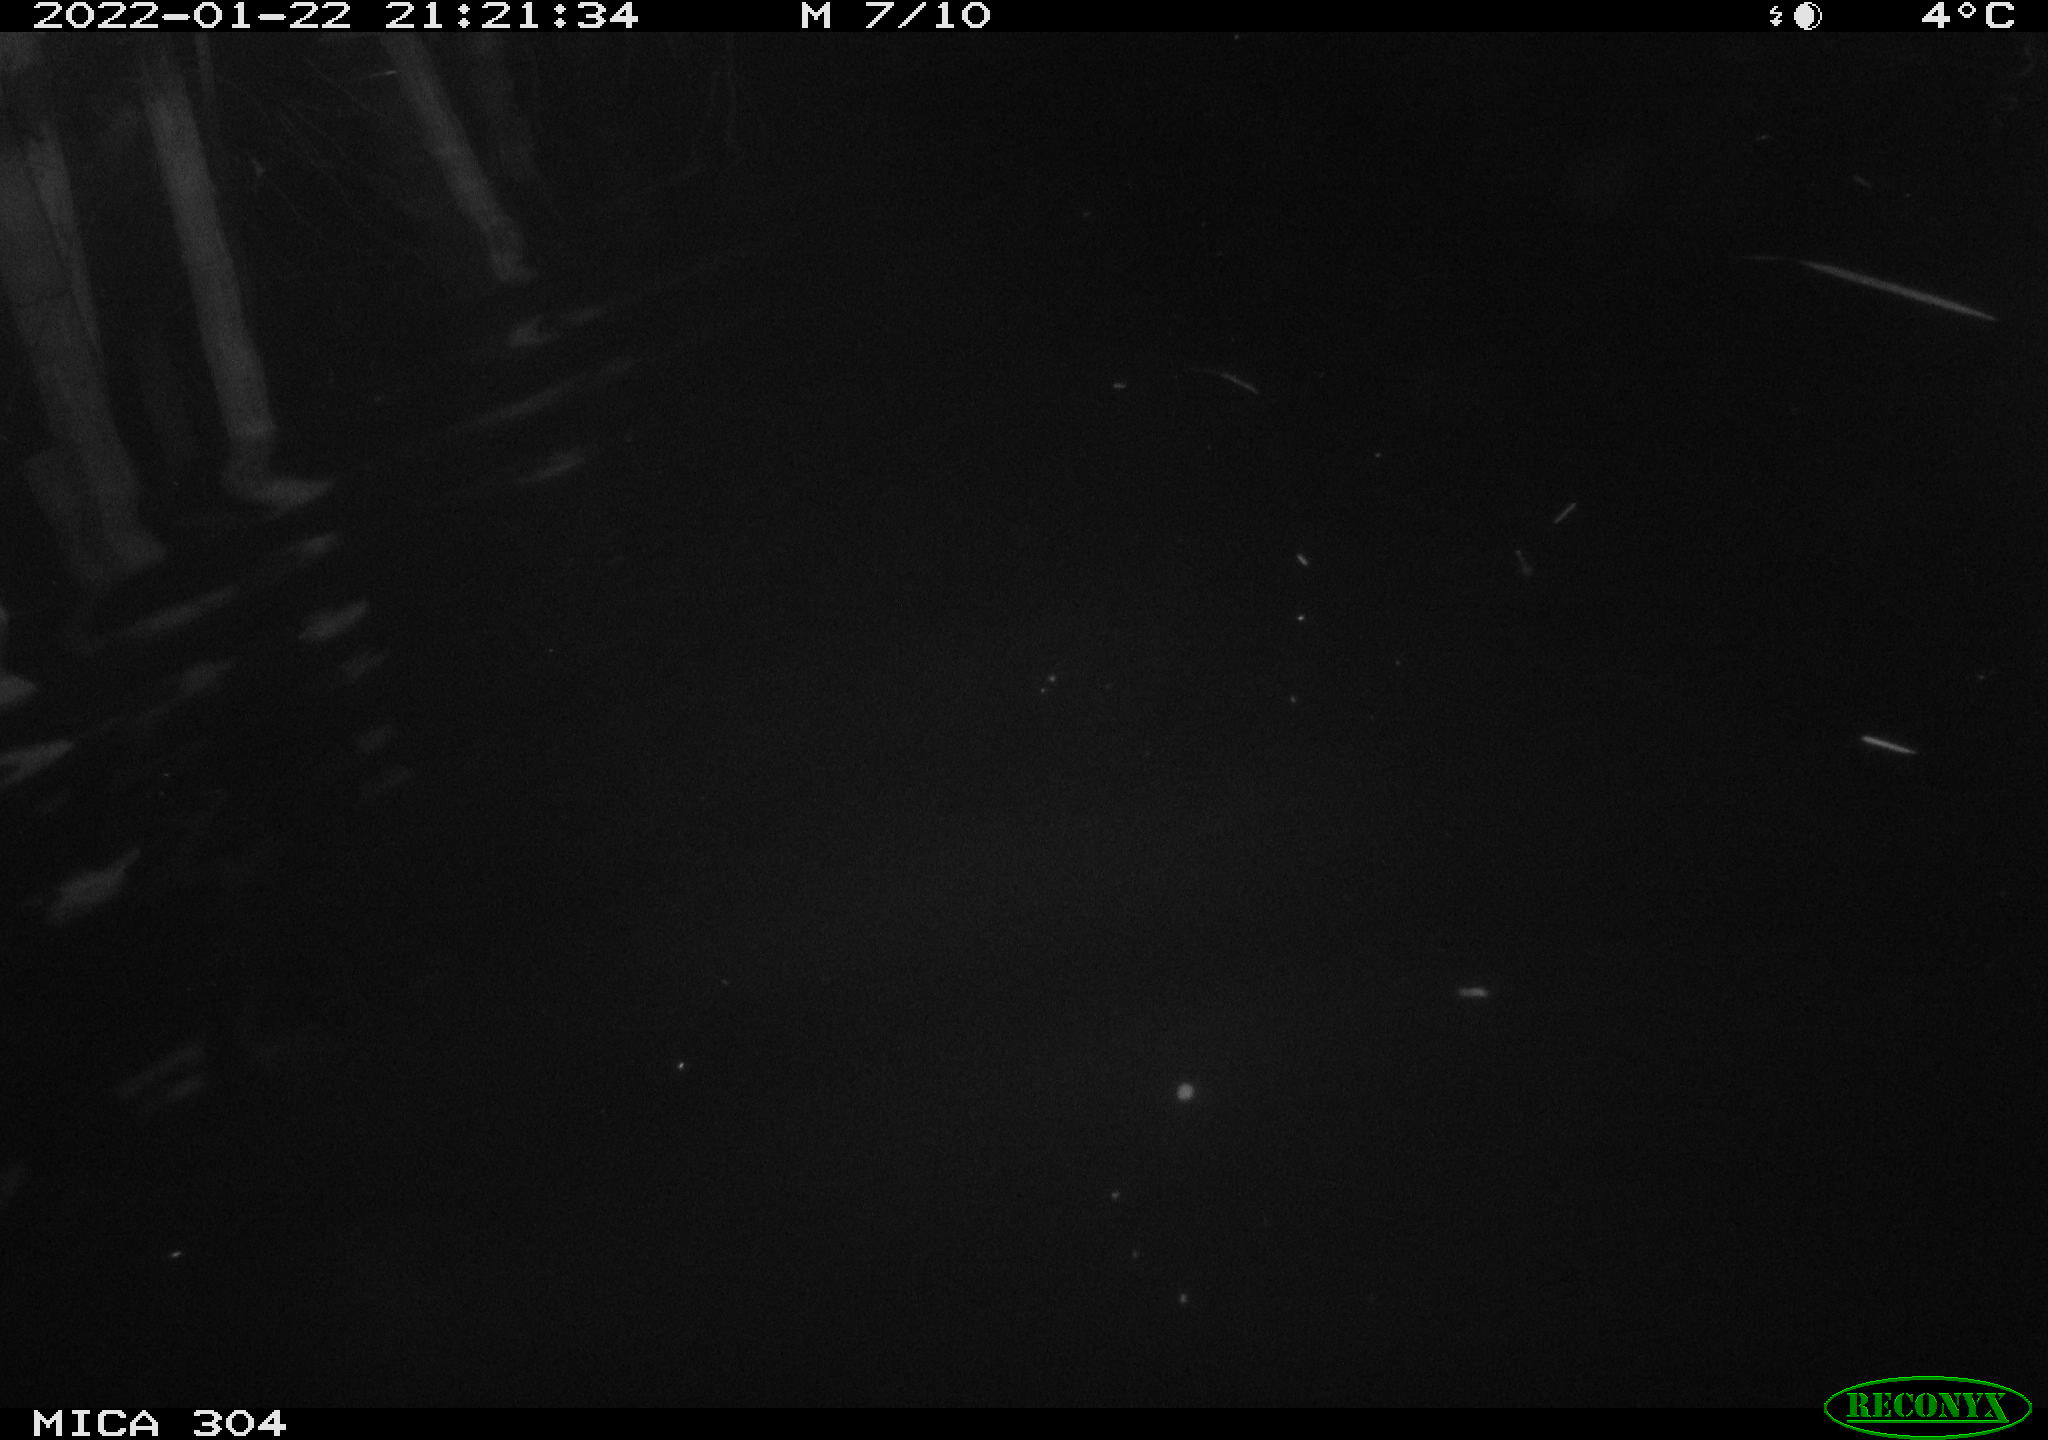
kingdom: Animalia
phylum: Chordata
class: Aves
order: Anseriformes
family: Anatidae
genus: Anas
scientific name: Anas
